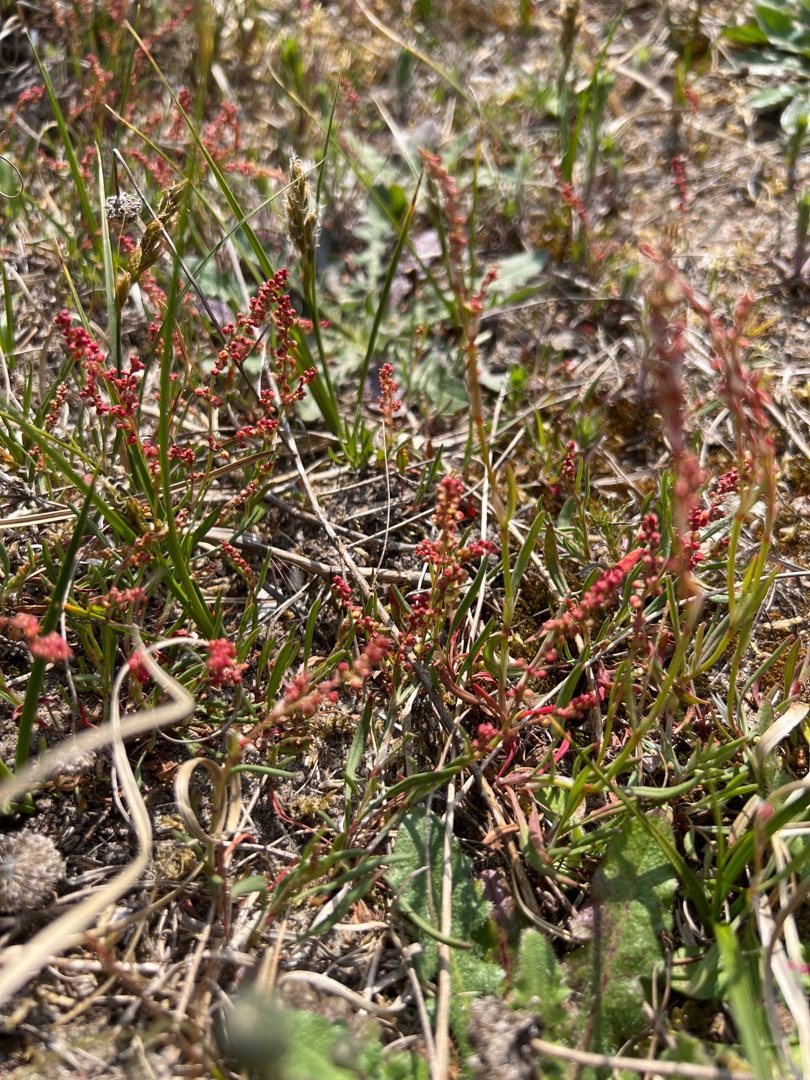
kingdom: Plantae
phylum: Tracheophyta
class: Magnoliopsida
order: Caryophyllales
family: Polygonaceae
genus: Rumex
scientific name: Rumex acetosella
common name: Rødknæ
